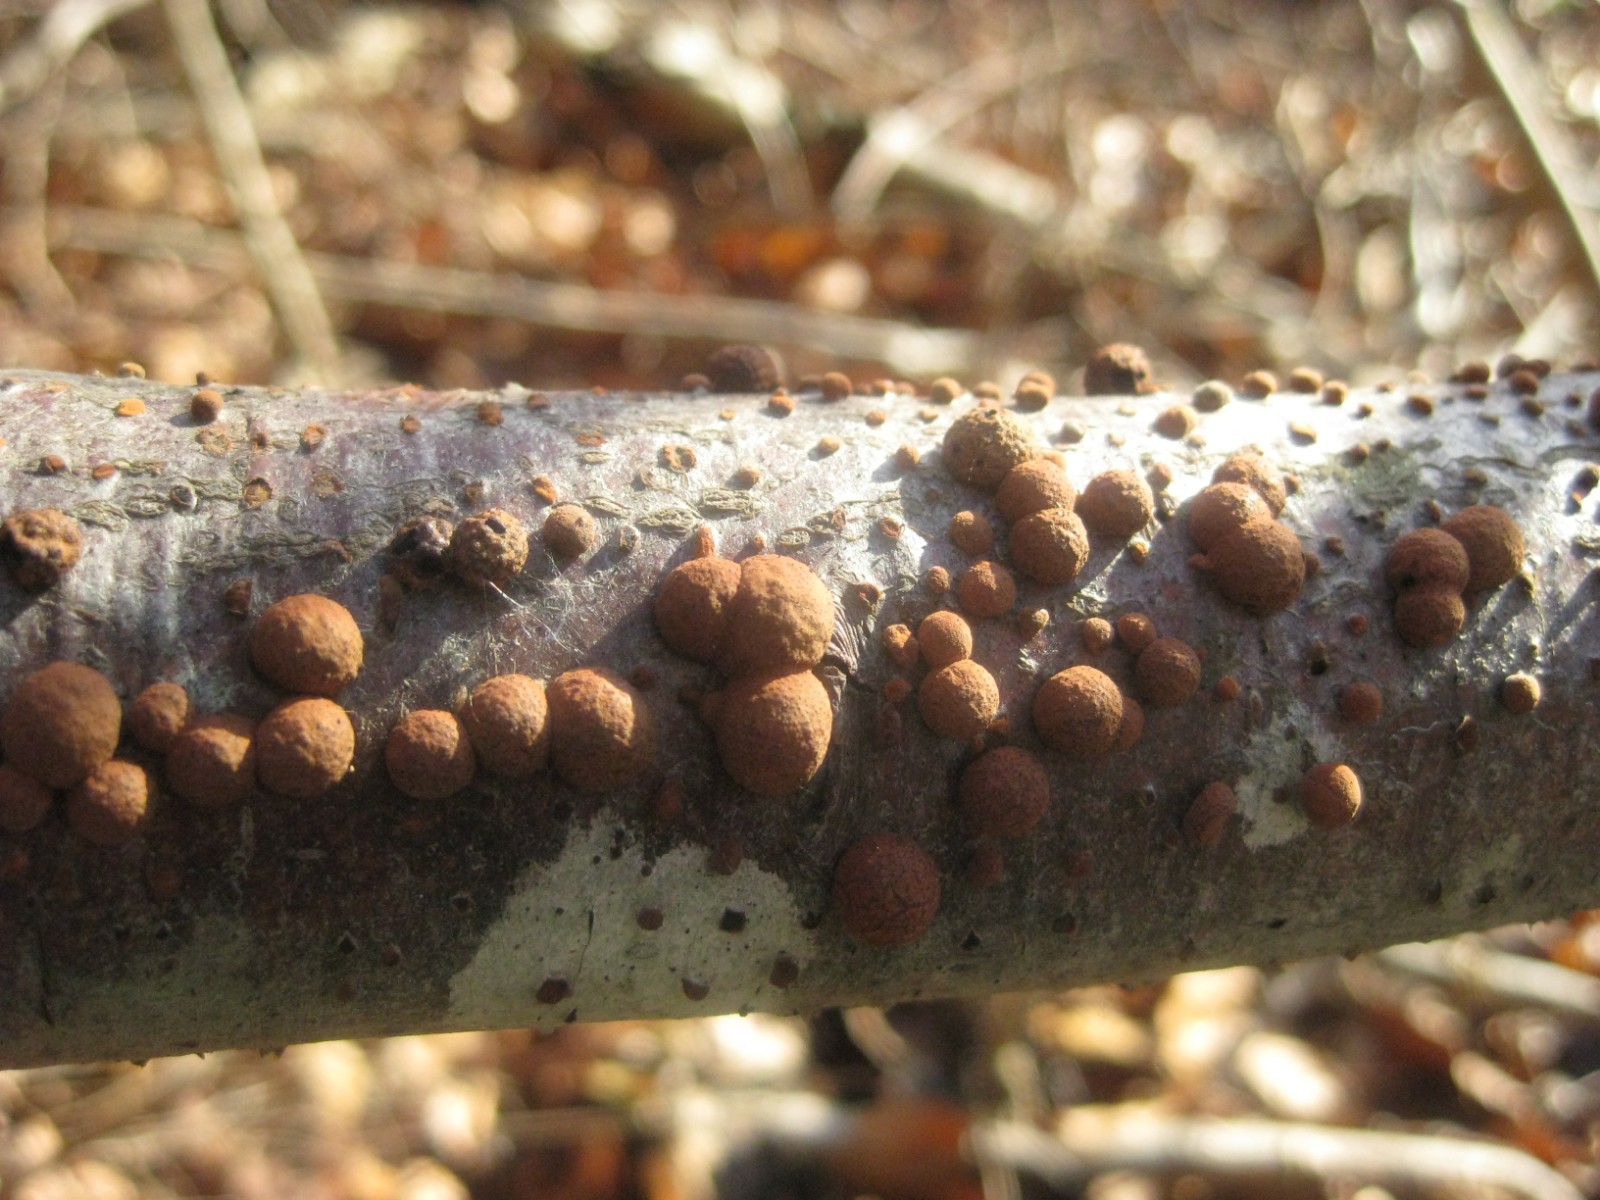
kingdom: Fungi
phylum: Ascomycota
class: Sordariomycetes
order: Xylariales
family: Hypoxylaceae
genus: Hypoxylon
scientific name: Hypoxylon fragiforme
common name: kuljordbær
